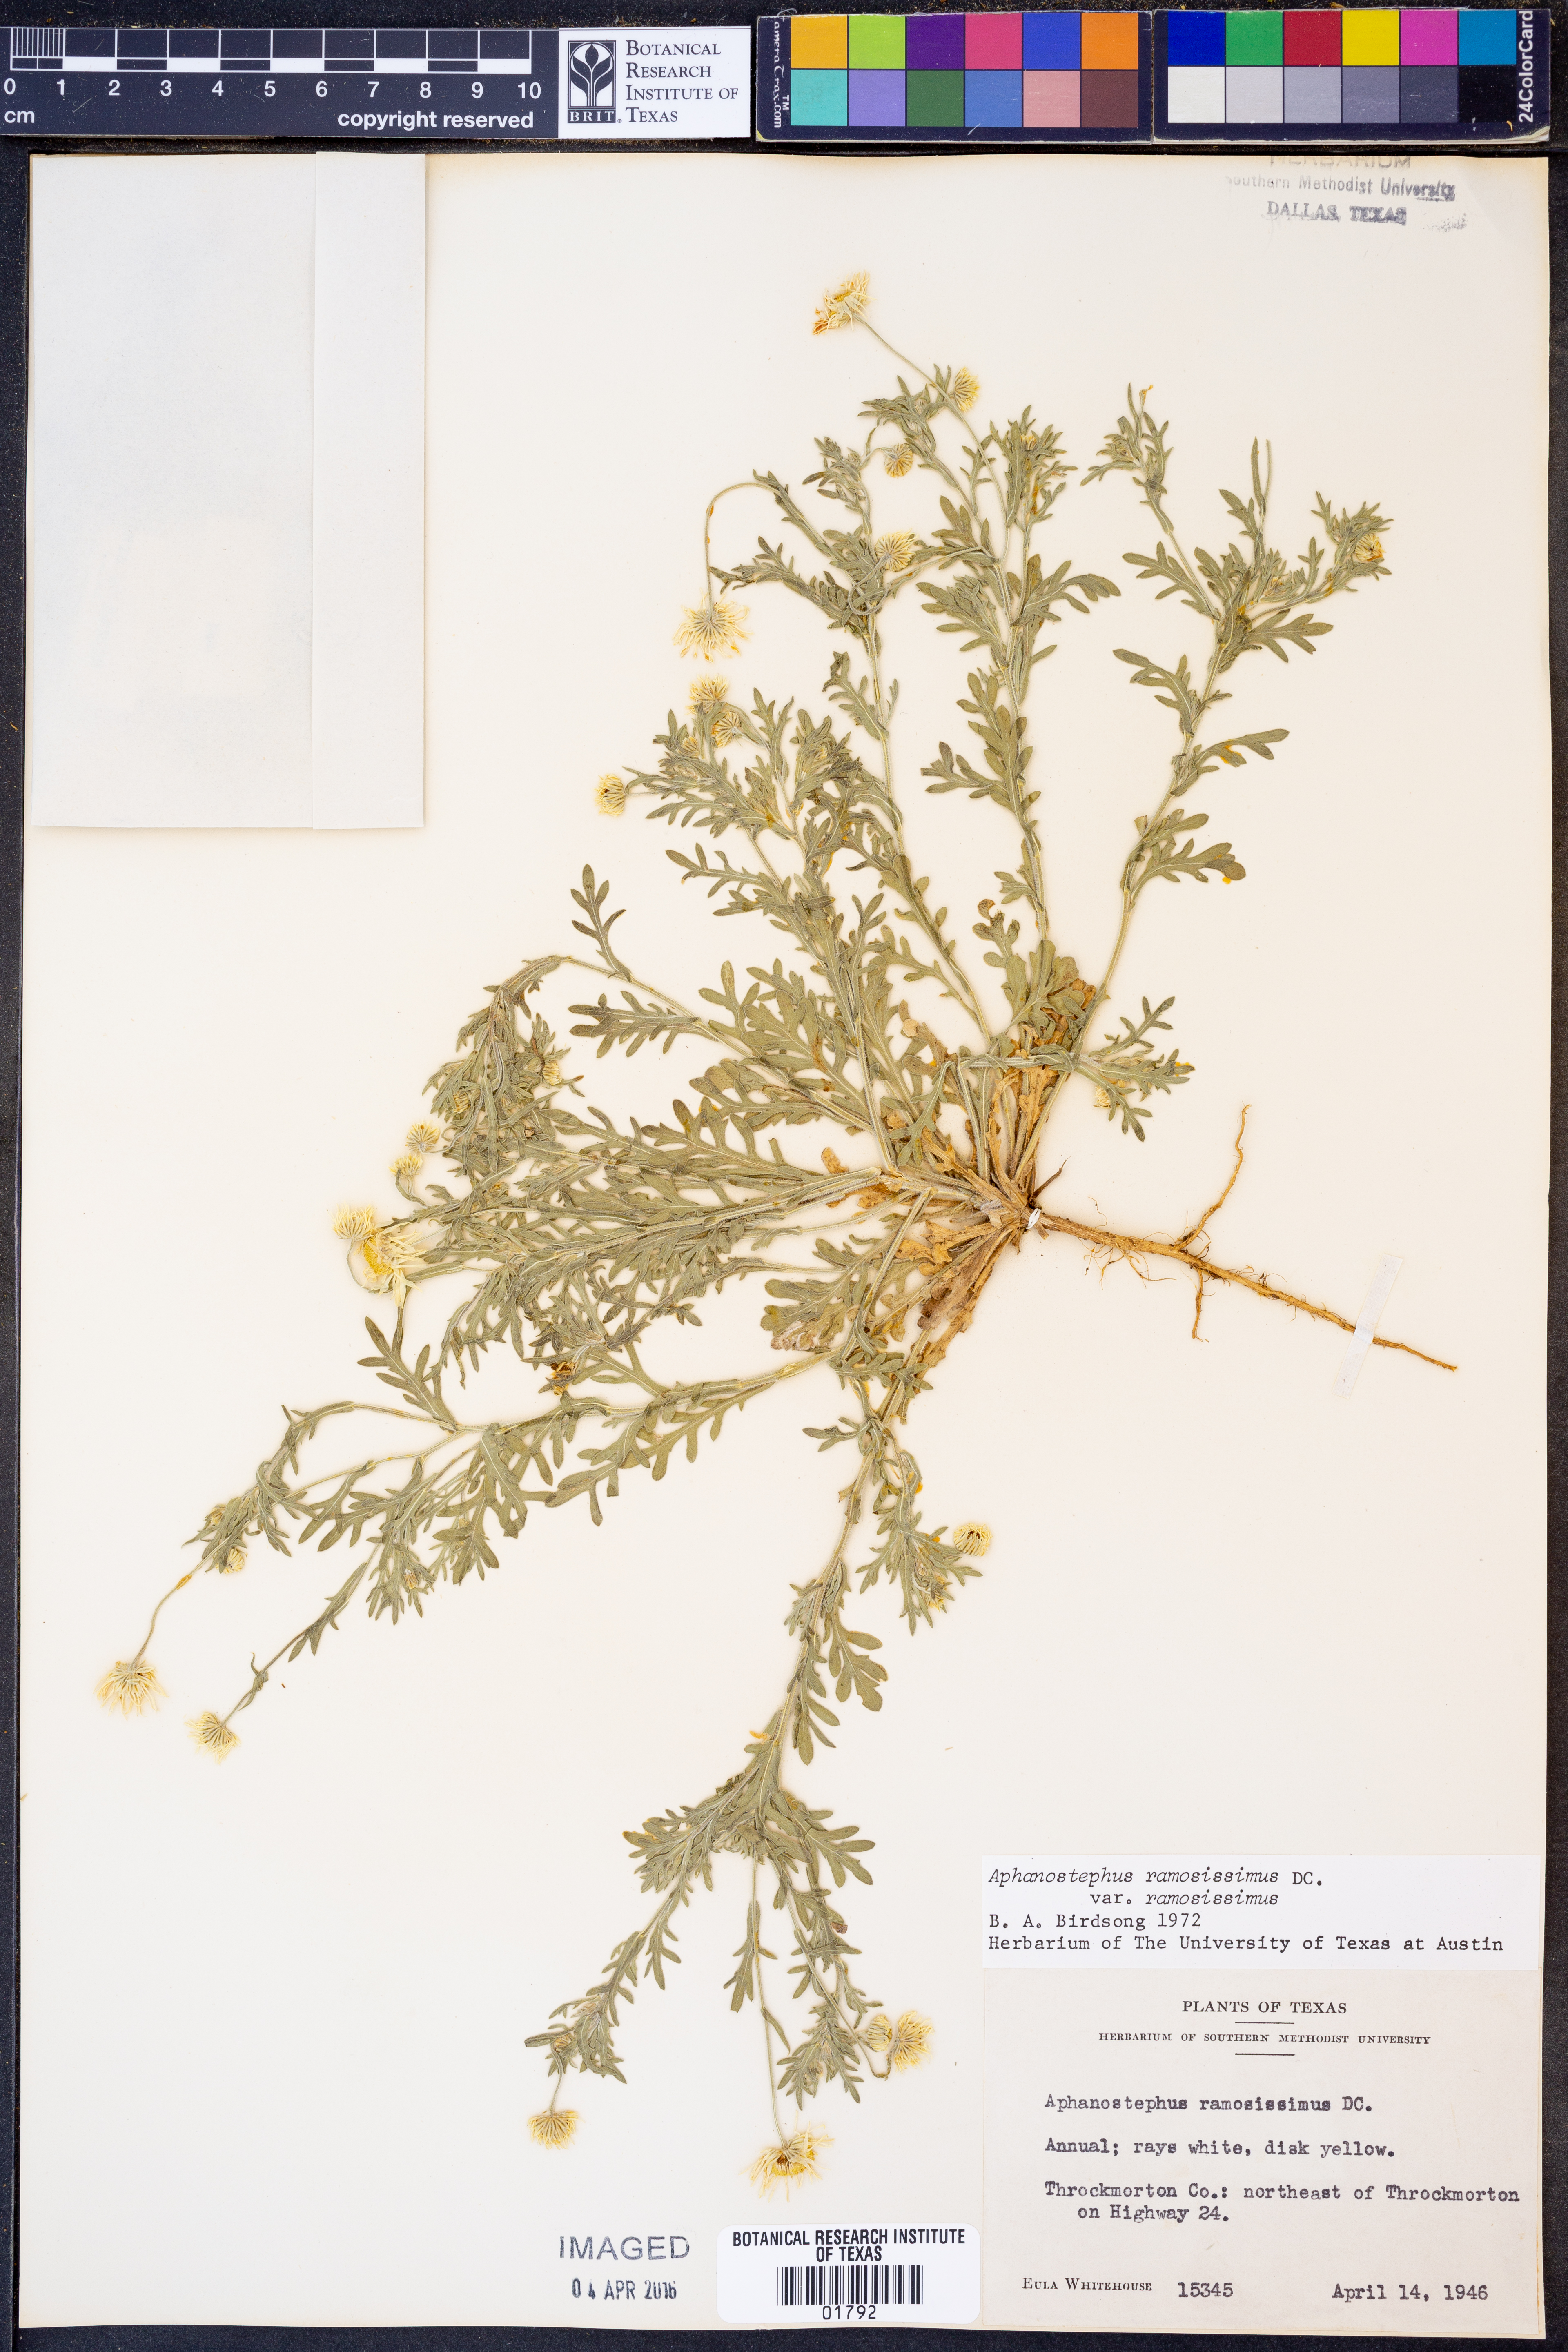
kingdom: Plantae
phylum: Tracheophyta
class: Magnoliopsida
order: Asterales
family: Asteraceae
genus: Aphanostephus
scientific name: Aphanostephus ramosissimus
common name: Plains lazy daisy
